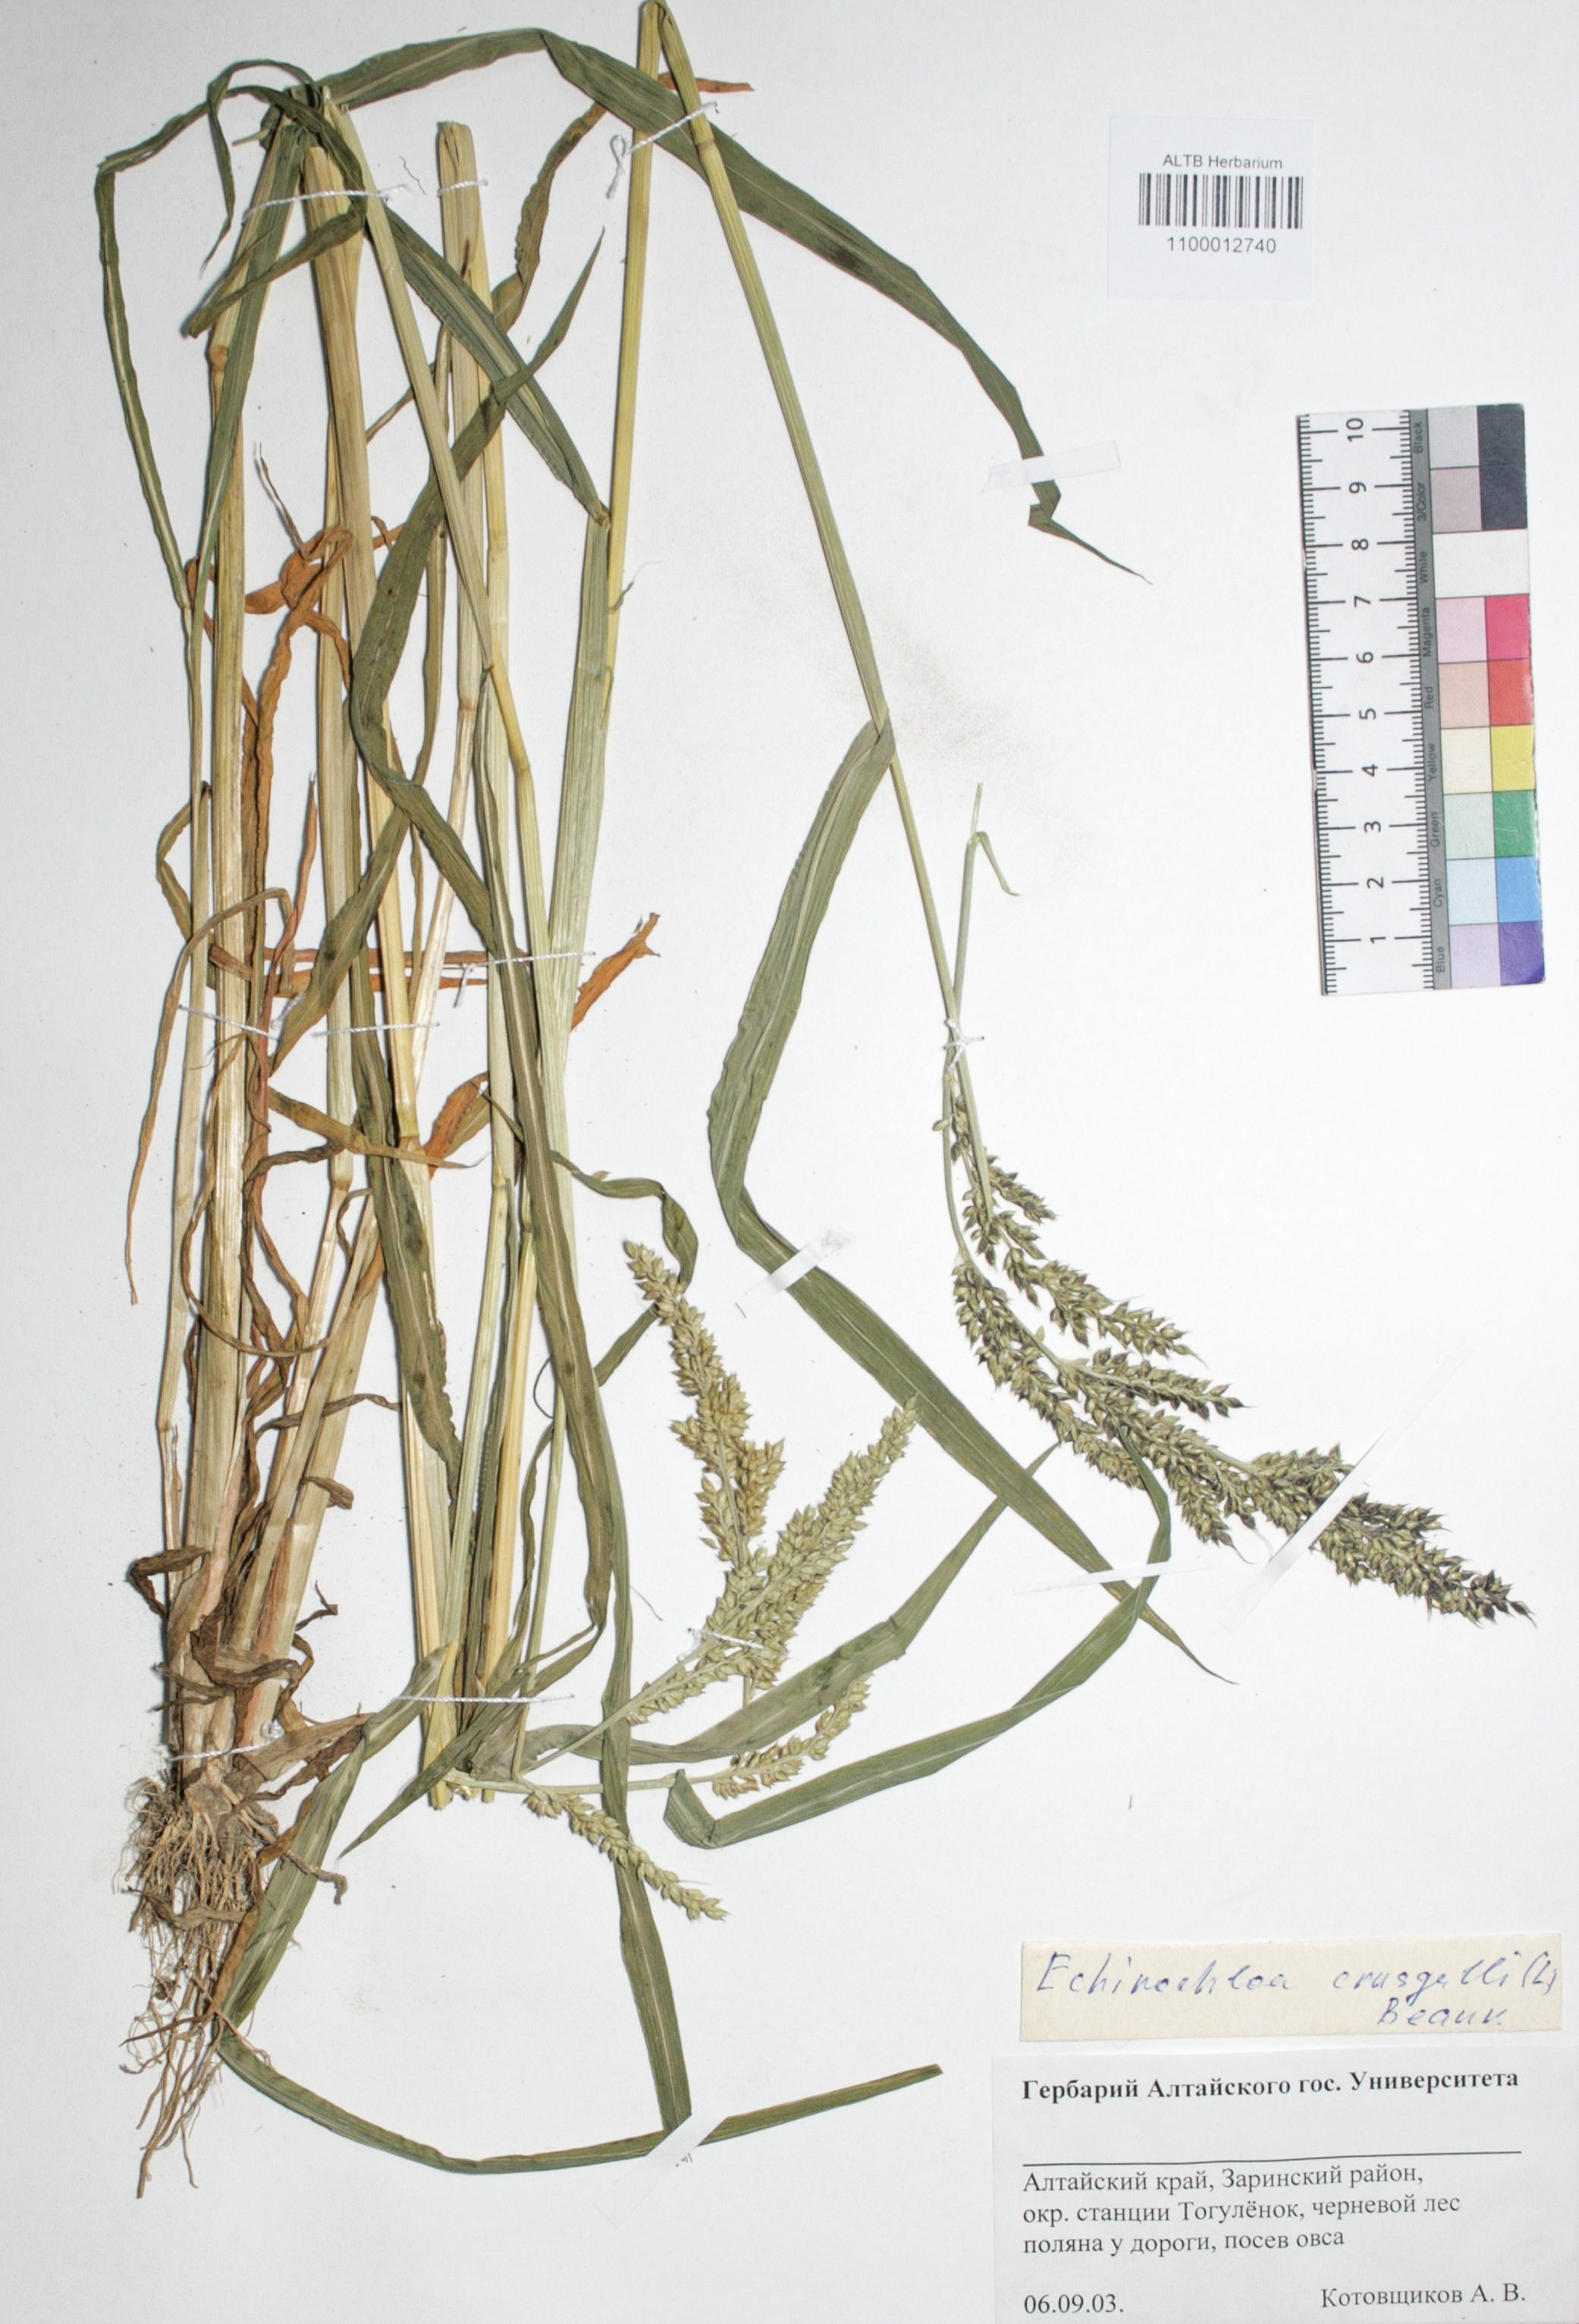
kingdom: Plantae
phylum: Tracheophyta
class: Liliopsida
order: Poales
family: Poaceae
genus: Echinochloa
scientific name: Echinochloa crus-galli
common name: Cockspur
